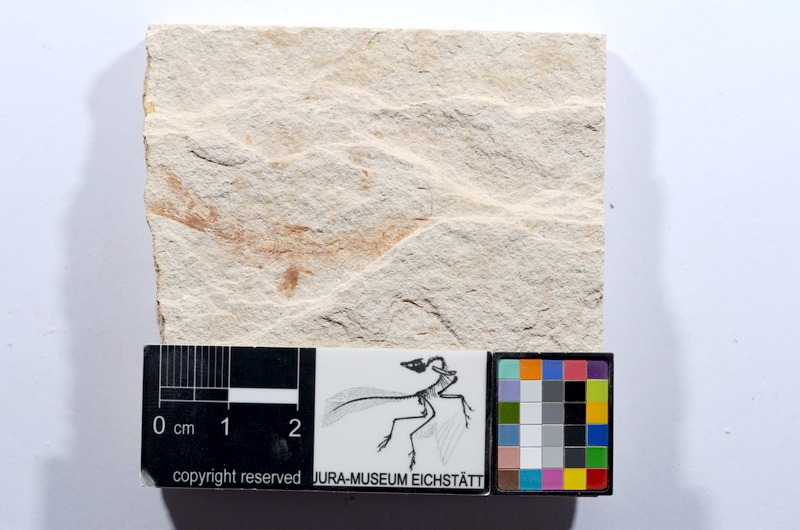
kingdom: Animalia
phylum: Chordata
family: Ascalaboidae
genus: Tharsis
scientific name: Tharsis dubius
